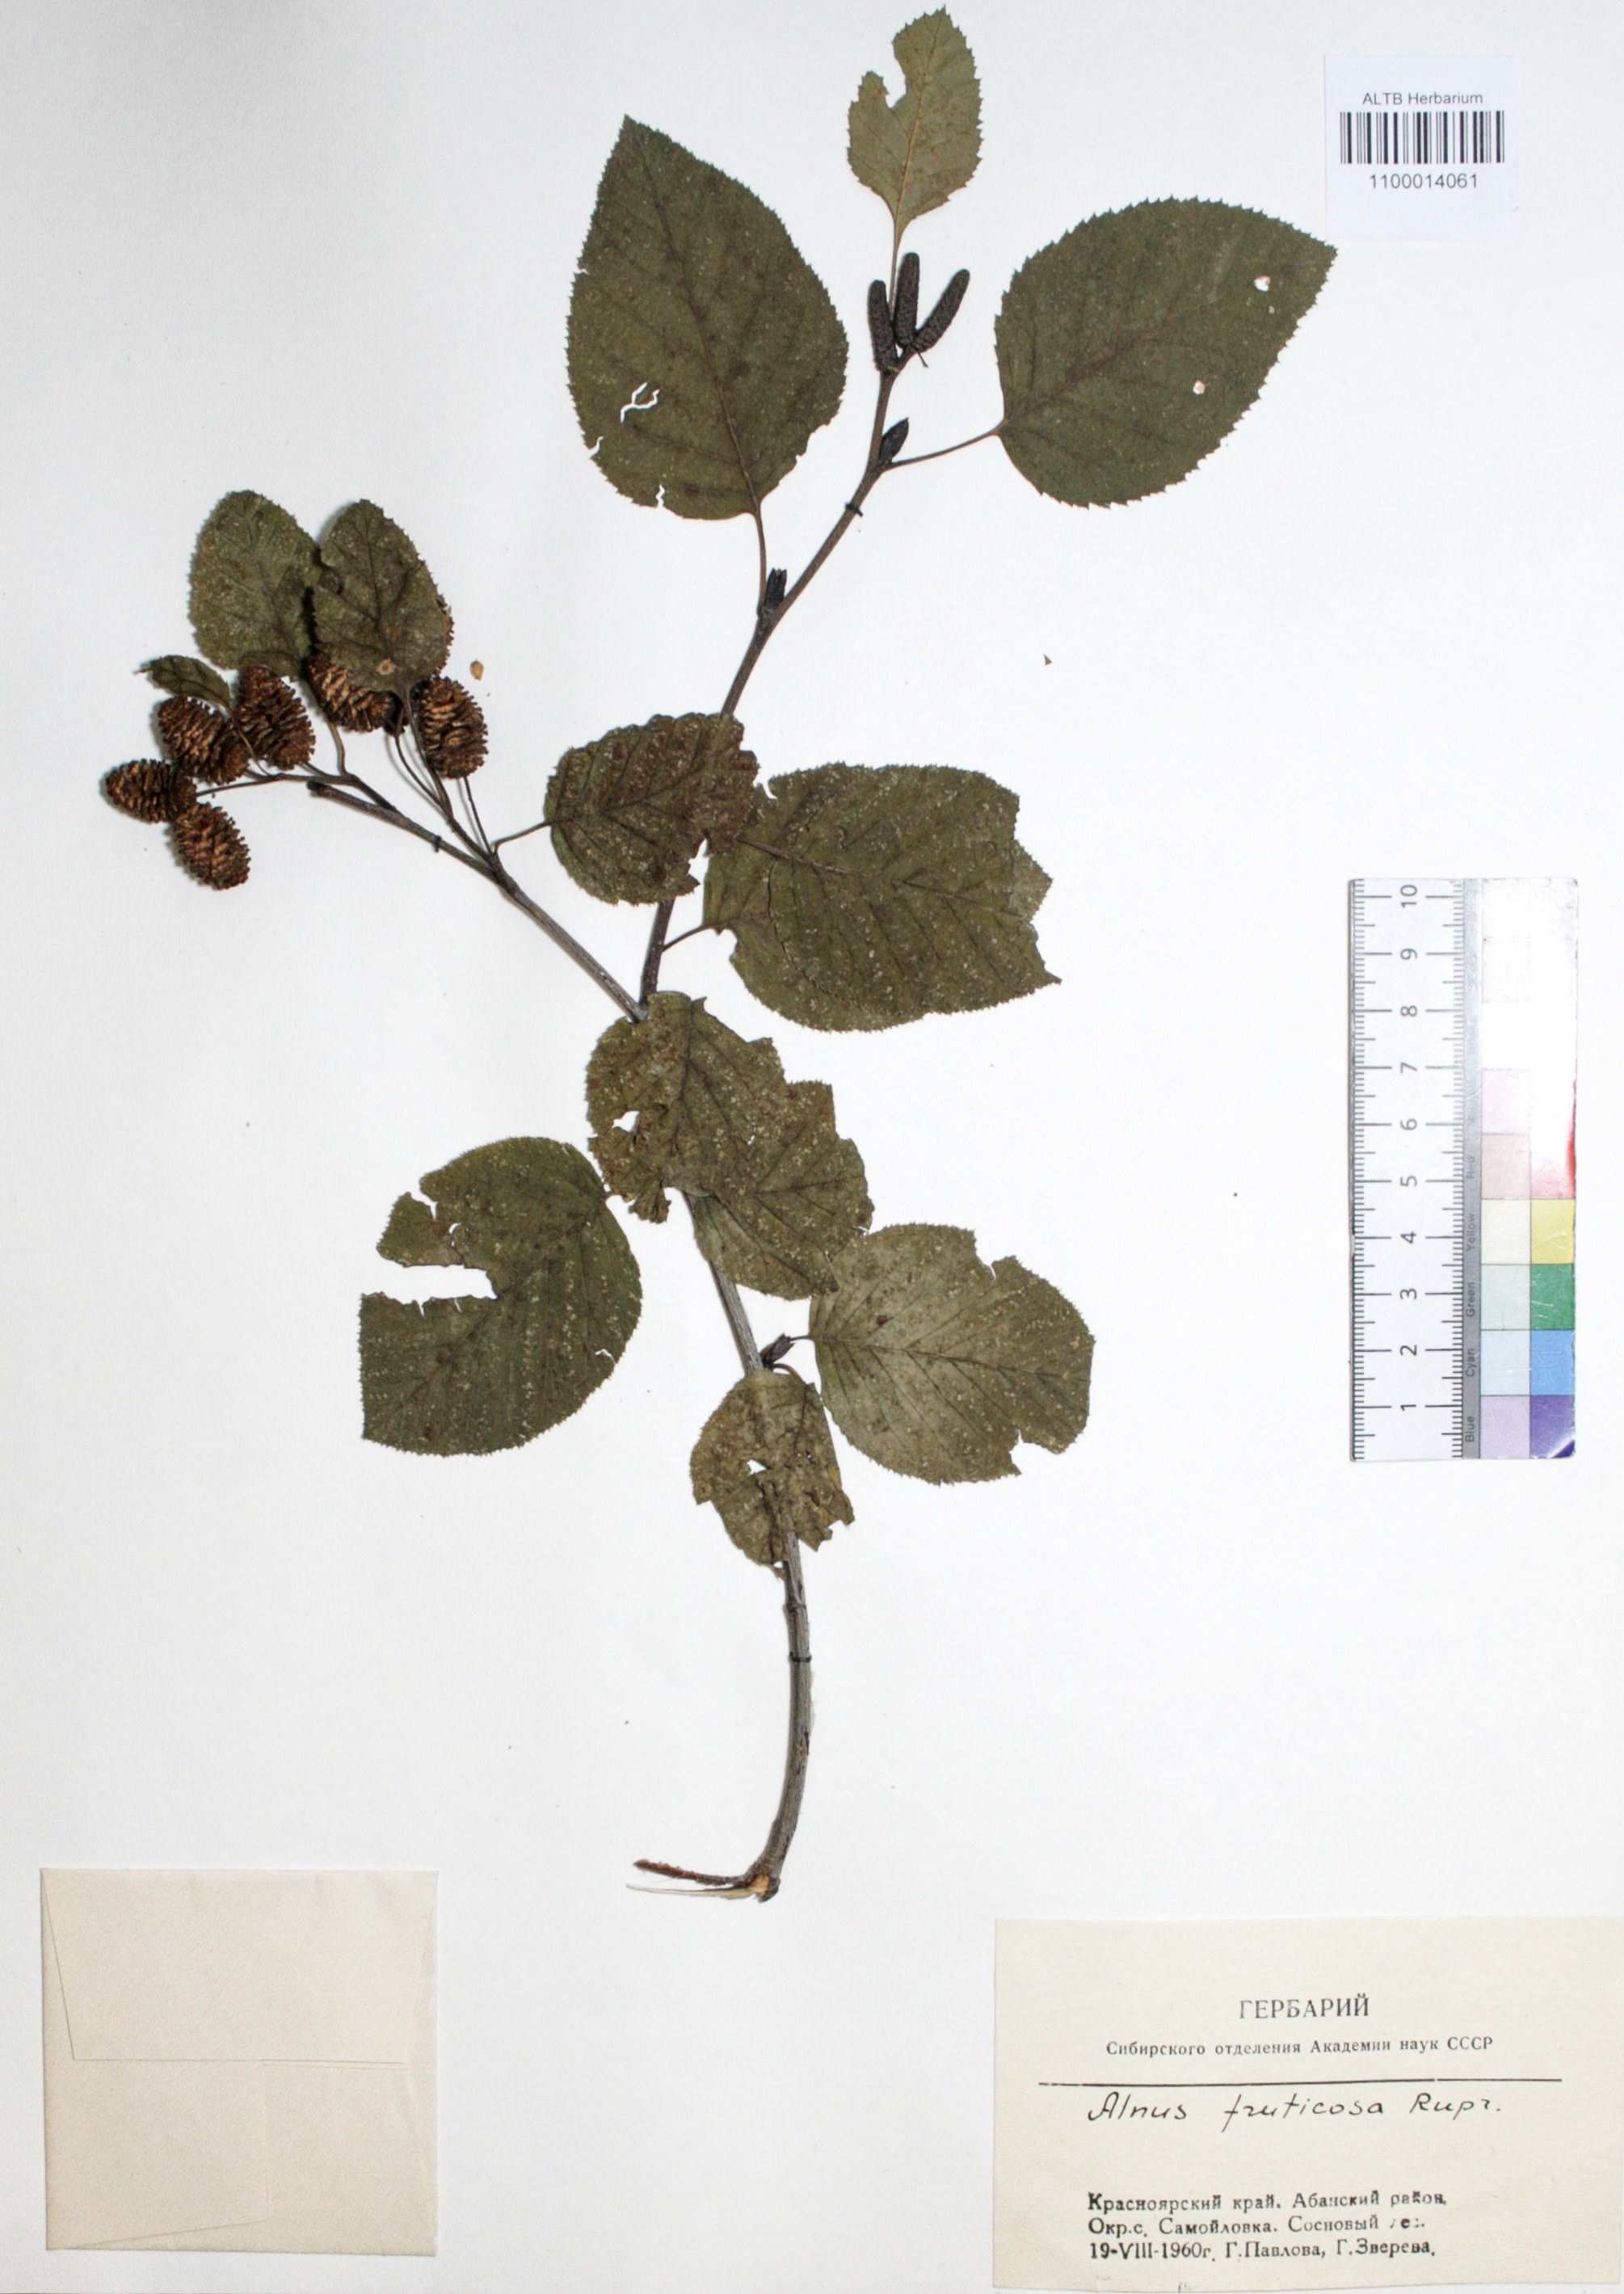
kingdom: Plantae
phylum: Tracheophyta
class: Magnoliopsida
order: Fagales
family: Betulaceae
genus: Alnus
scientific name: Alnus alnobetula
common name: Green alder
